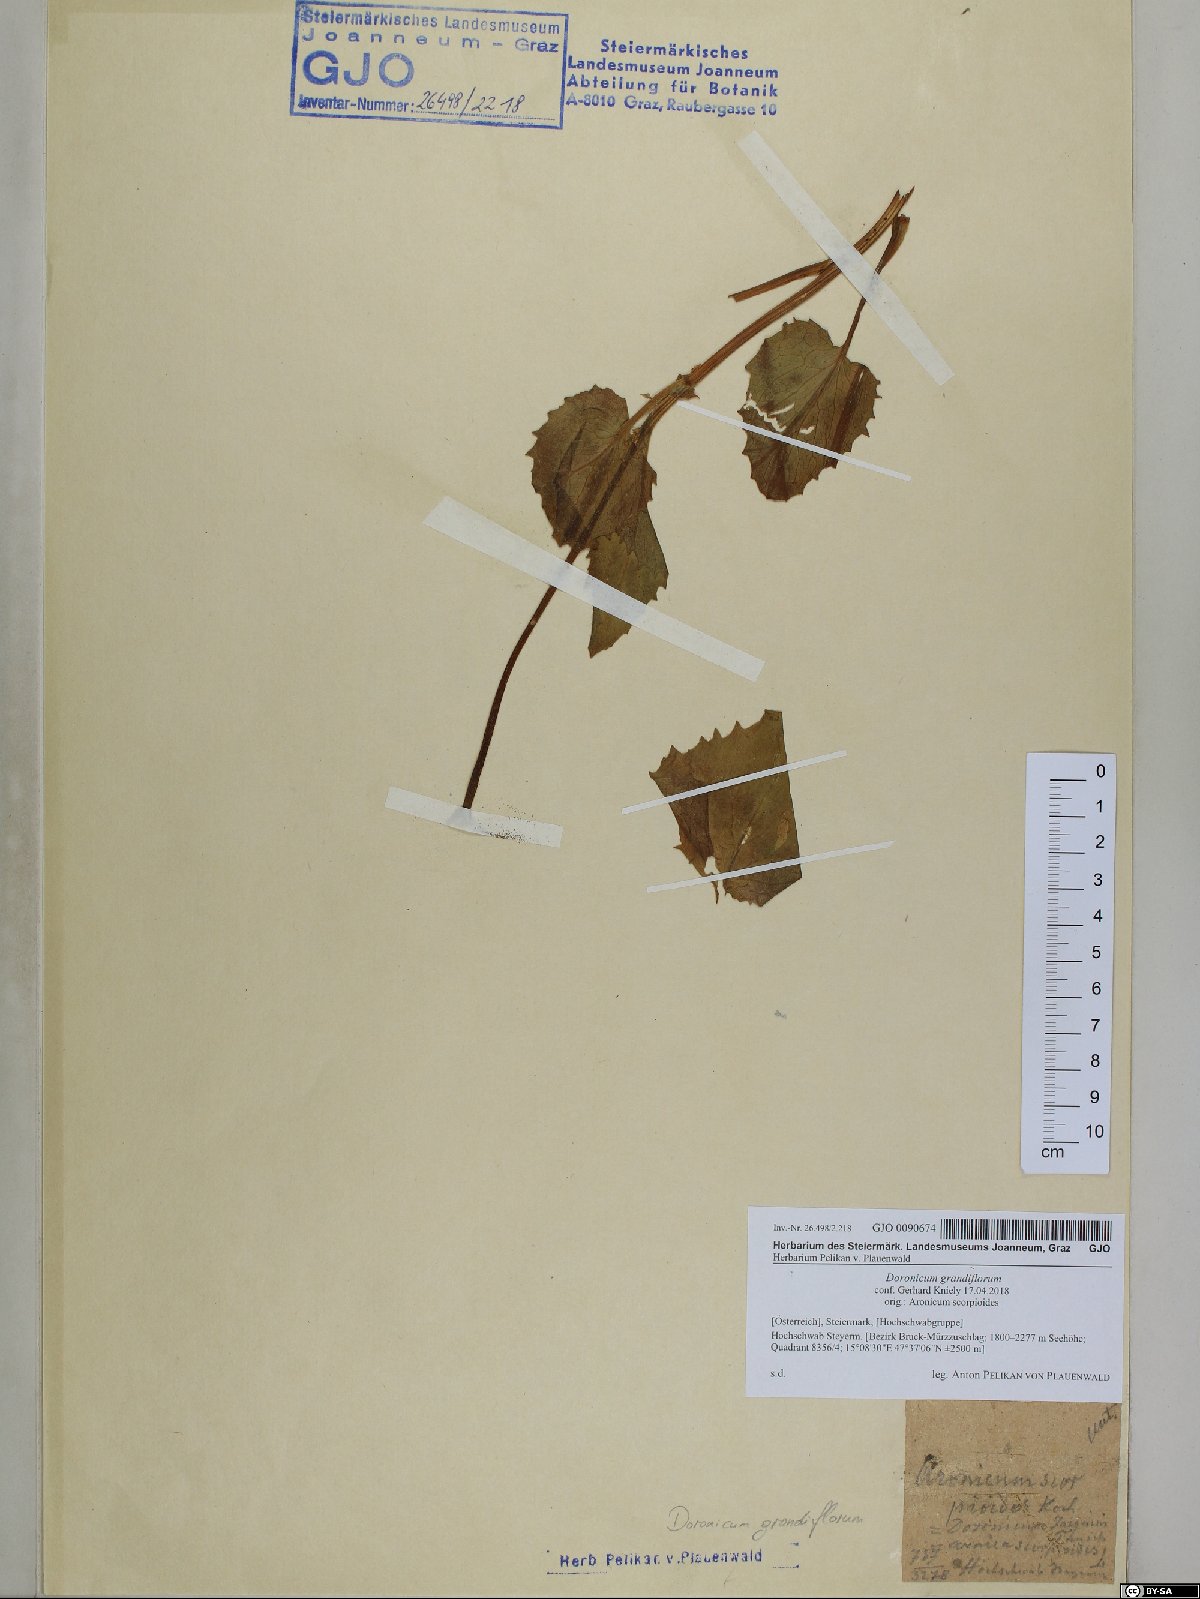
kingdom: Plantae
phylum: Tracheophyta
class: Magnoliopsida
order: Asterales
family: Asteraceae
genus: Doronicum
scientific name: Doronicum grandiflorum
